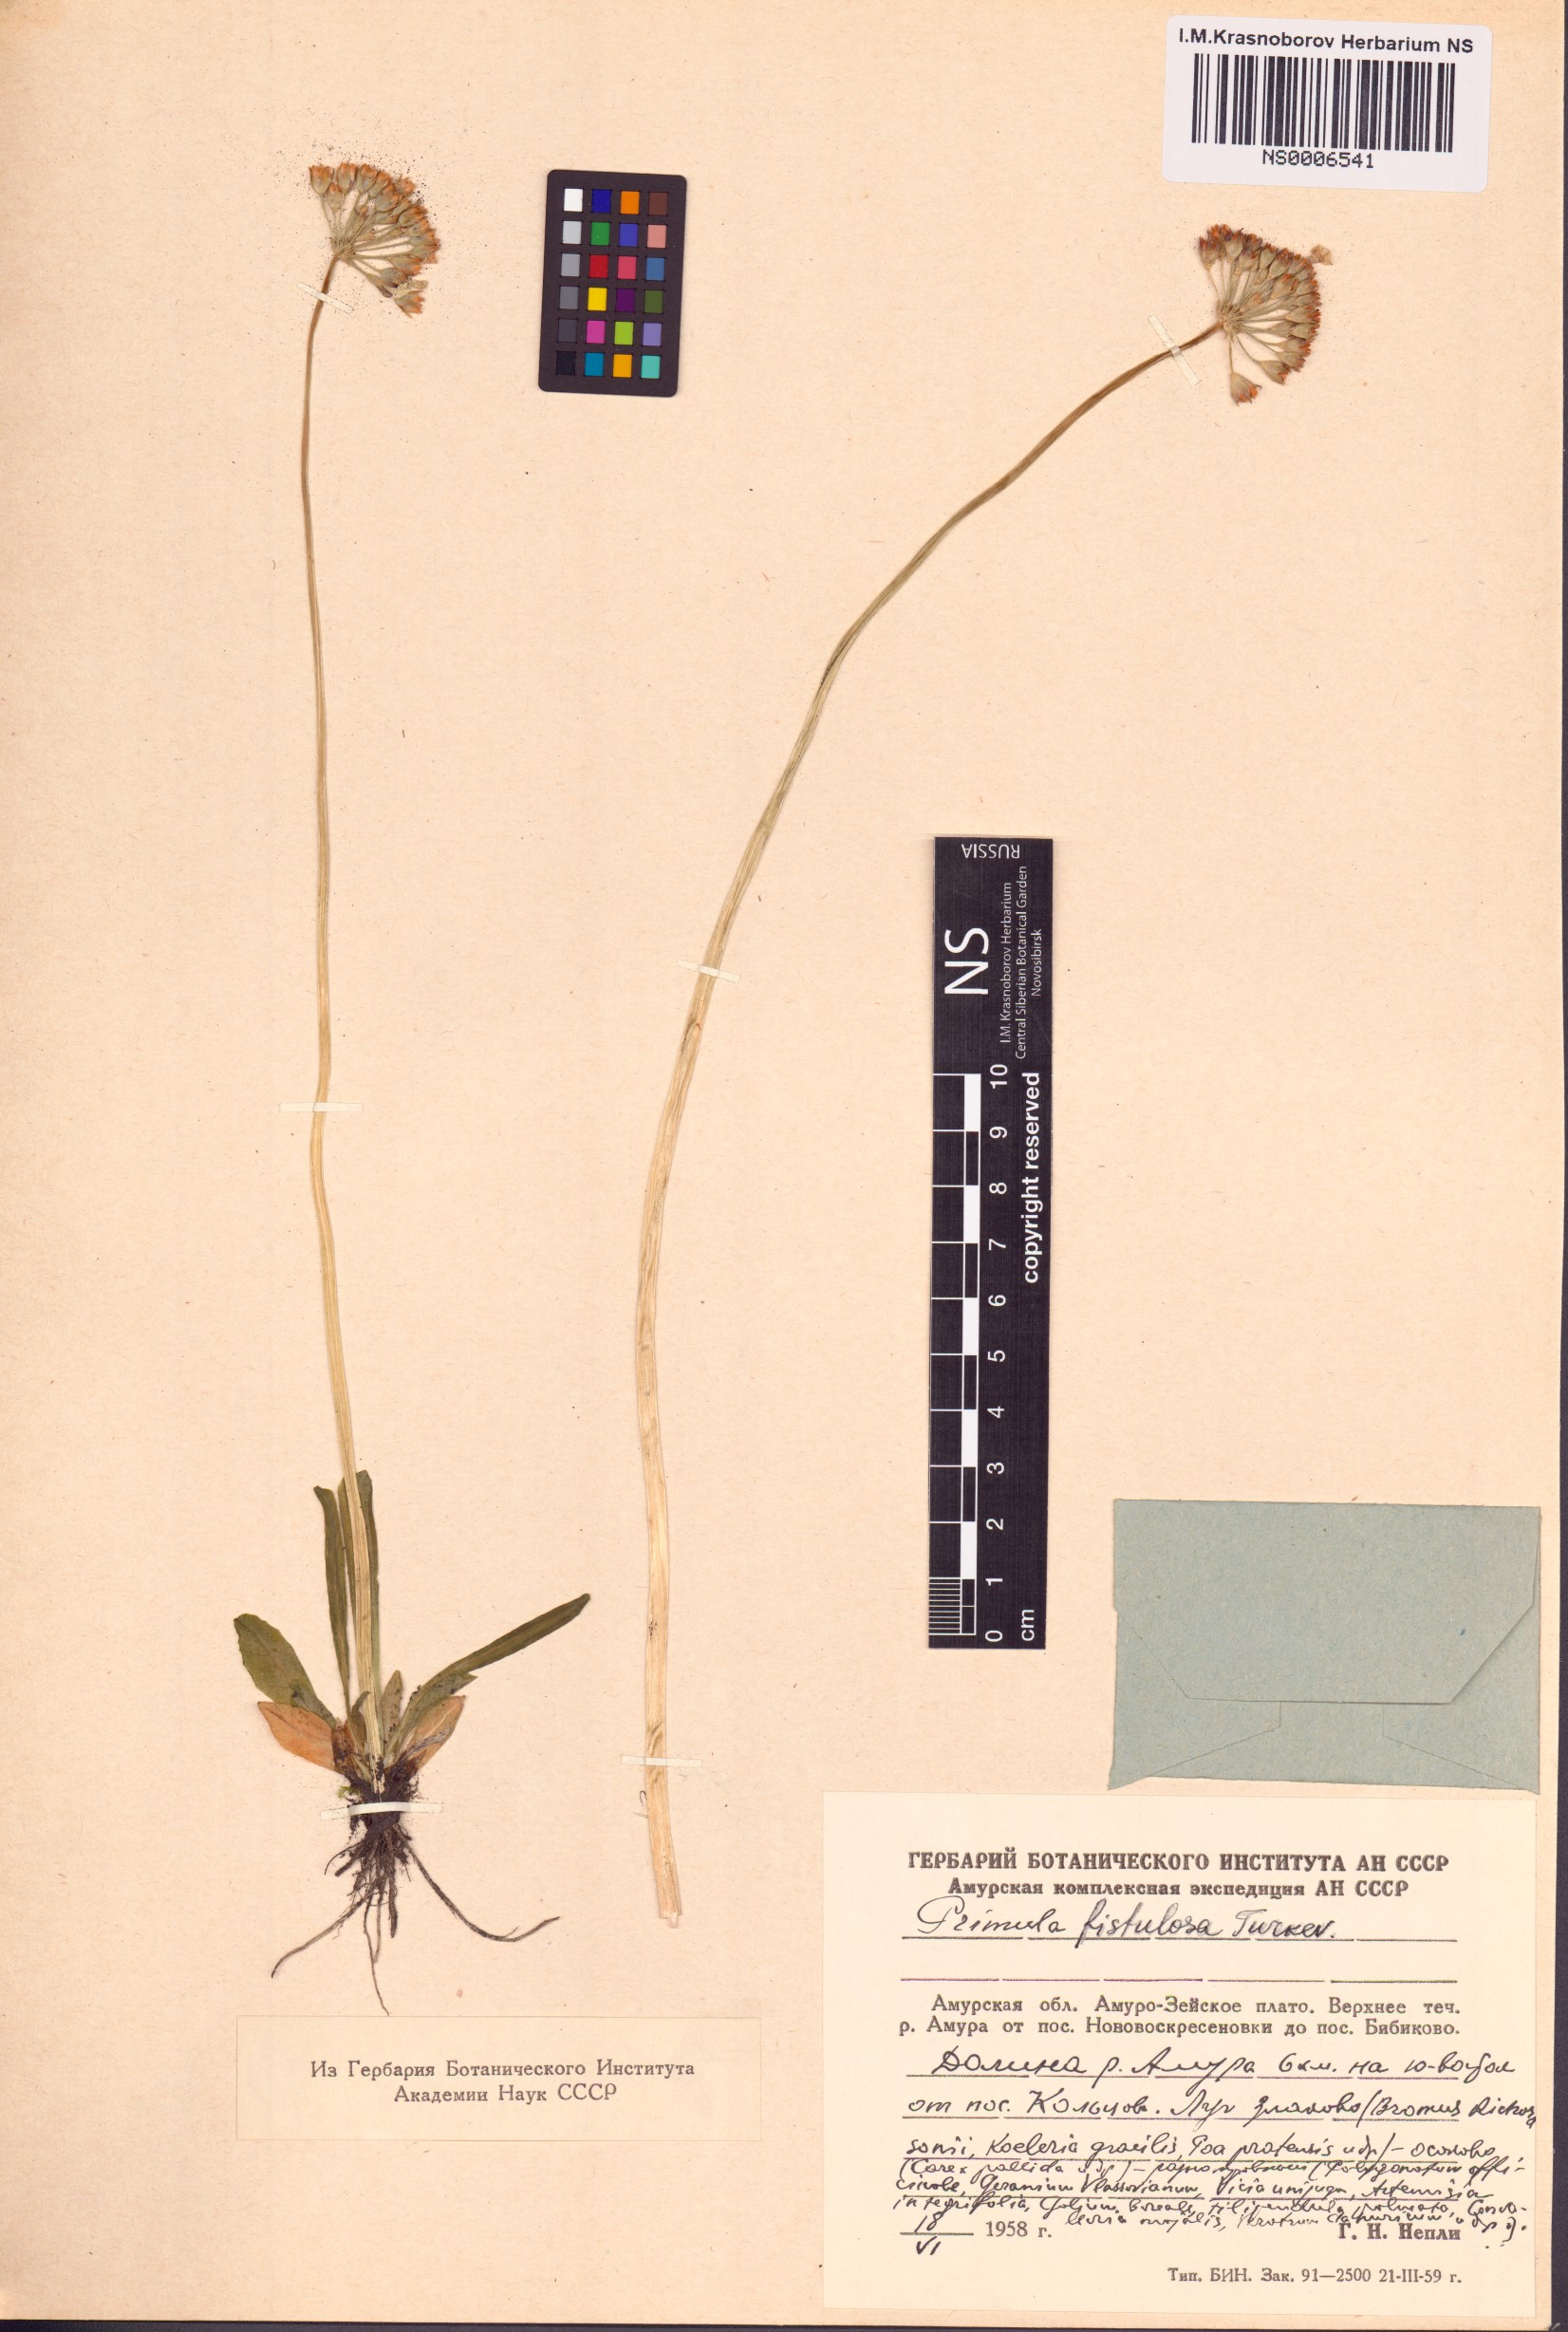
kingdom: Plantae
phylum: Tracheophyta
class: Magnoliopsida
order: Ericales
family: Primulaceae
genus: Primula
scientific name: Primula fistulosa
